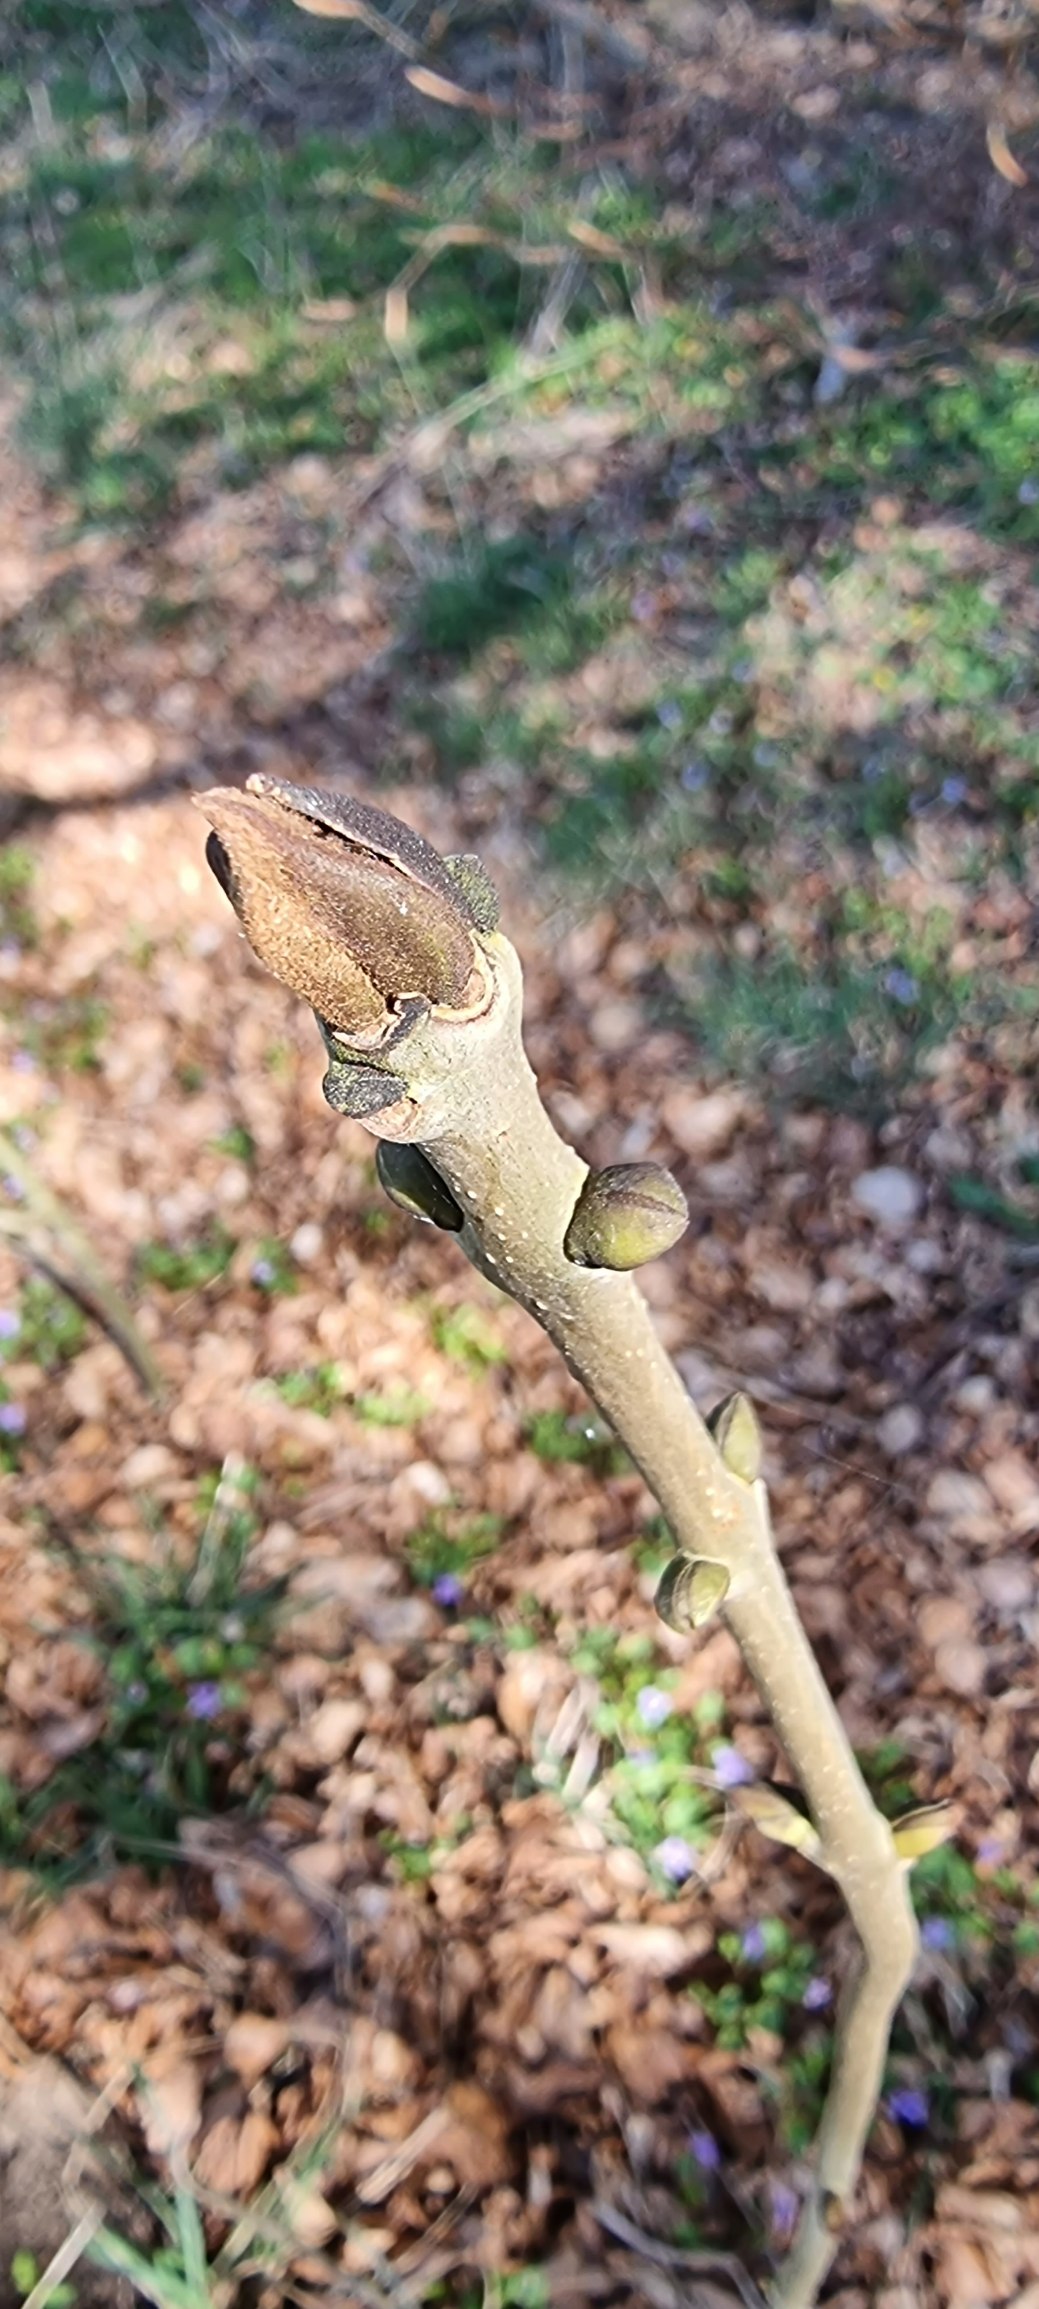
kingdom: Plantae
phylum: Tracheophyta
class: Magnoliopsida
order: Lamiales
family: Oleaceae
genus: Fraxinus
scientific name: Fraxinus excelsior
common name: Ask
